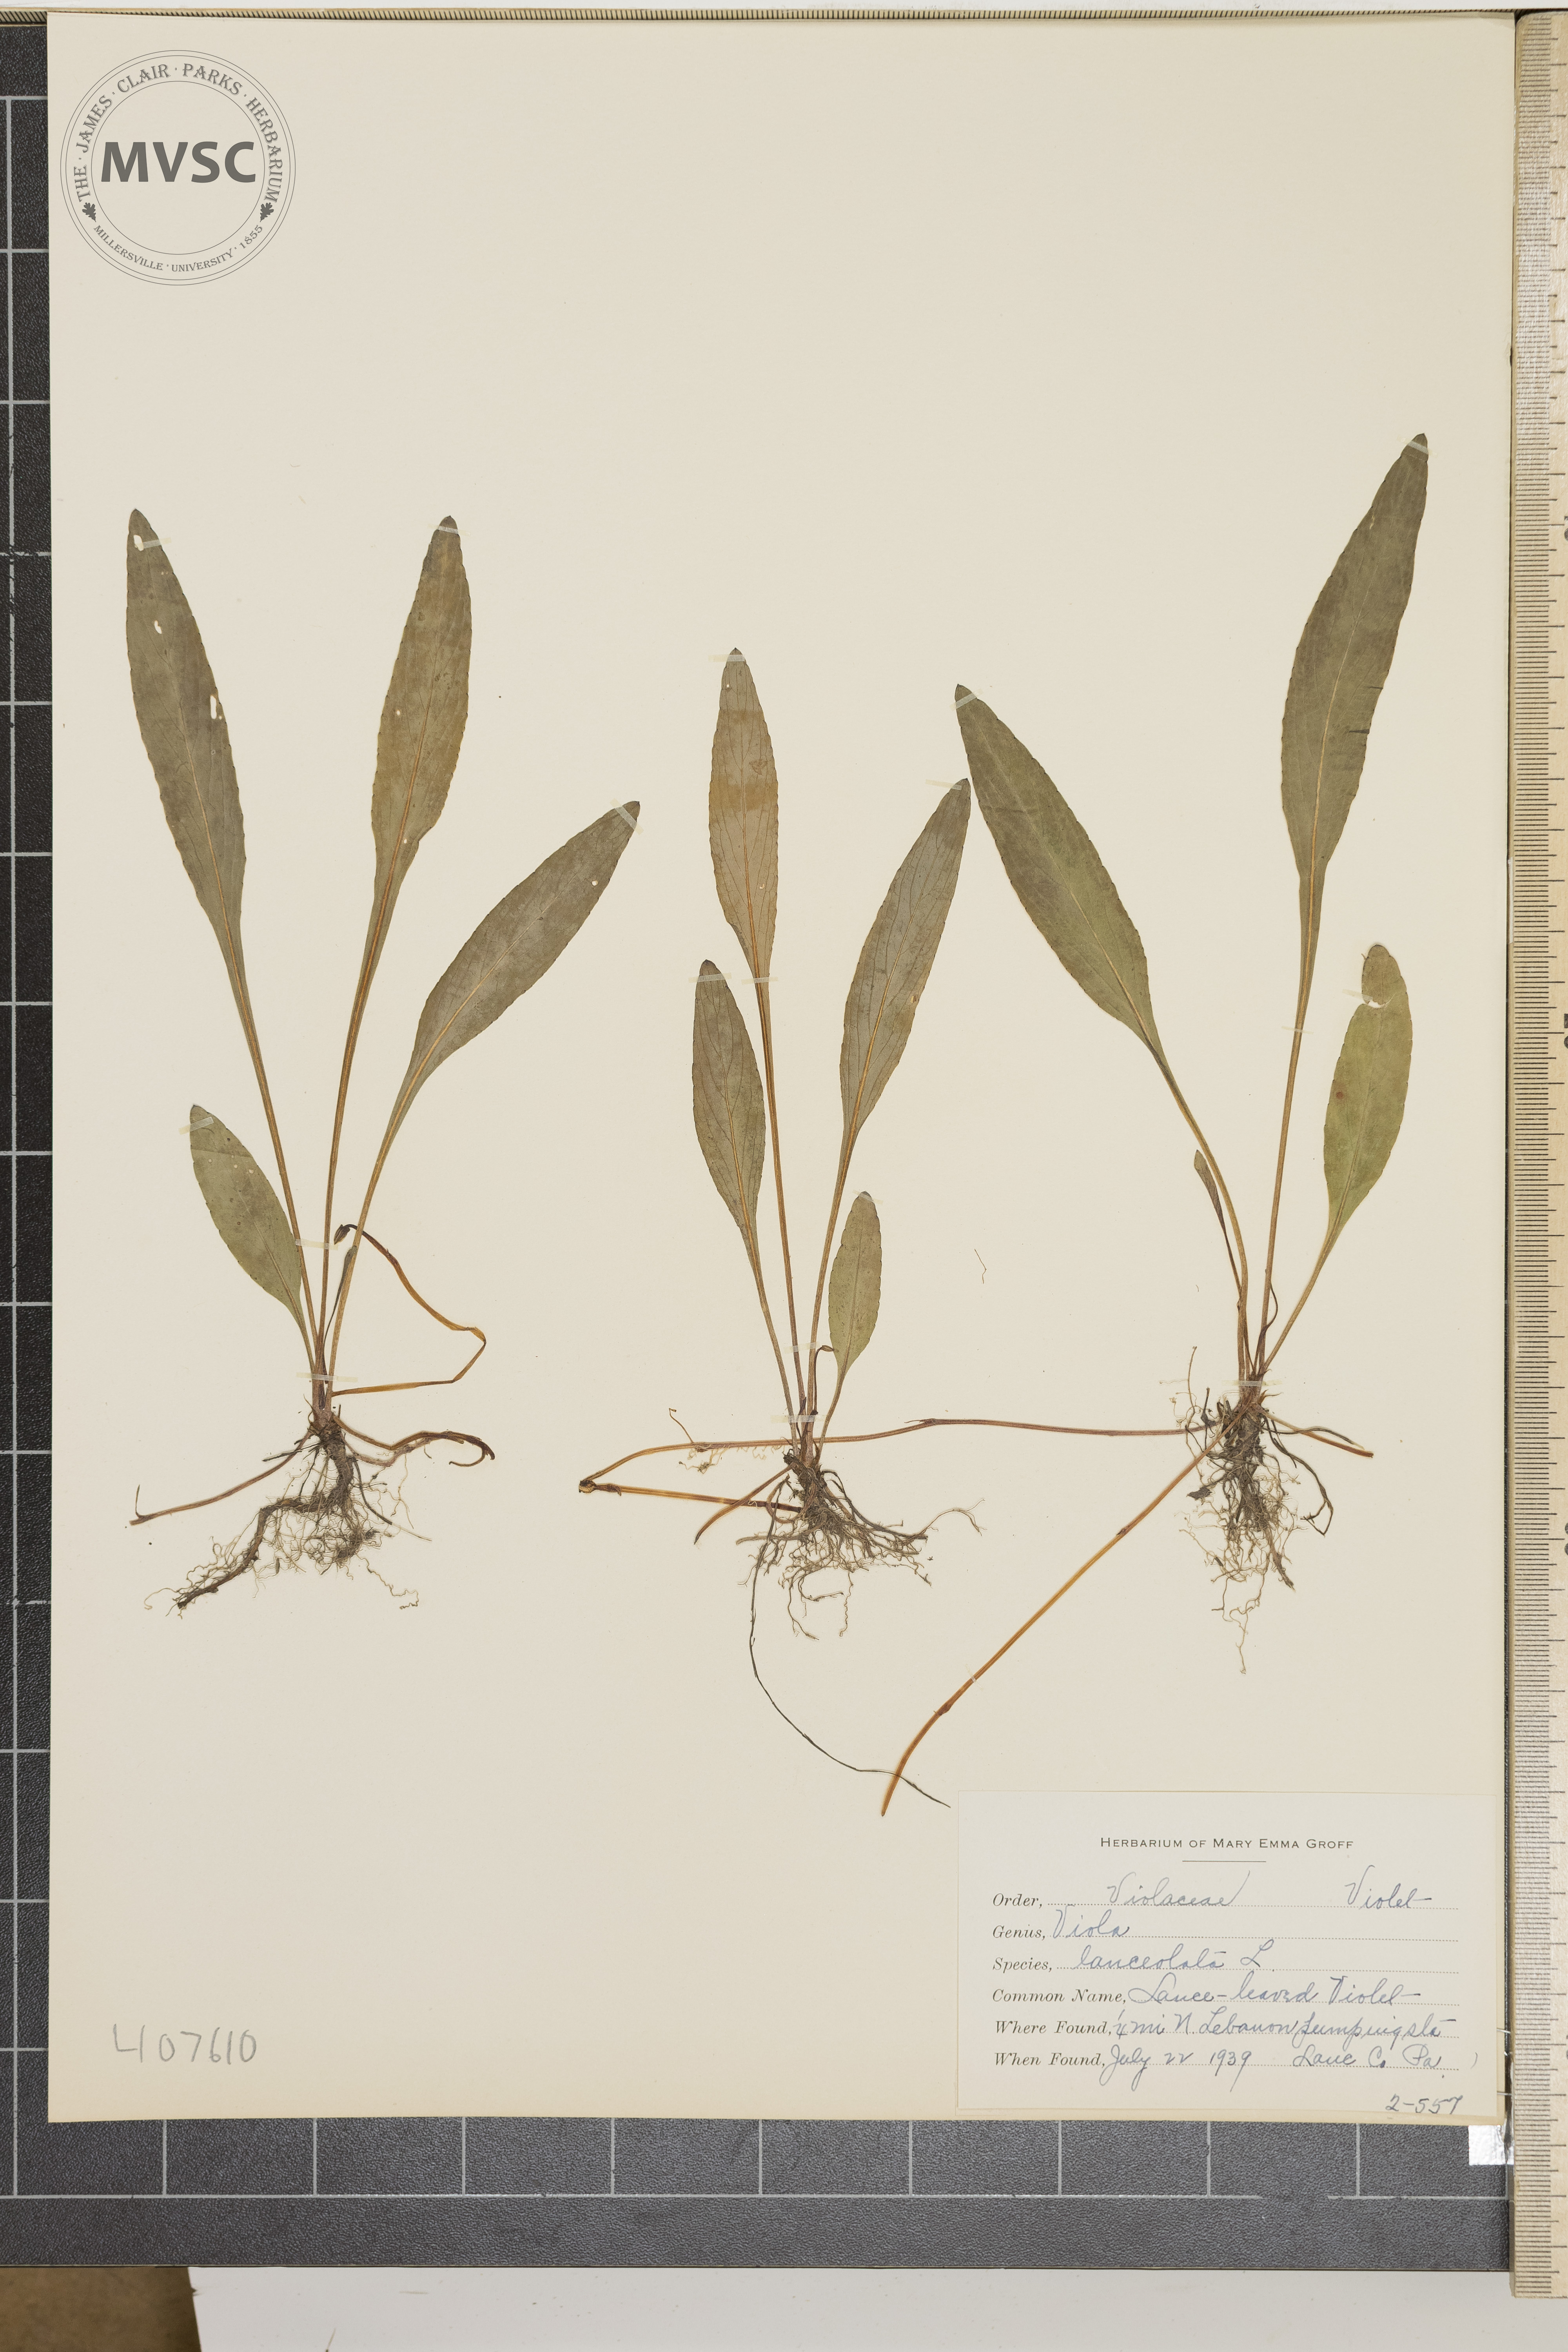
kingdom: Plantae
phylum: Tracheophyta
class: Magnoliopsida
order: Malpighiales
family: Violaceae
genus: Viola
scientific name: Viola lanceolata
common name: Lance-leaved violet
